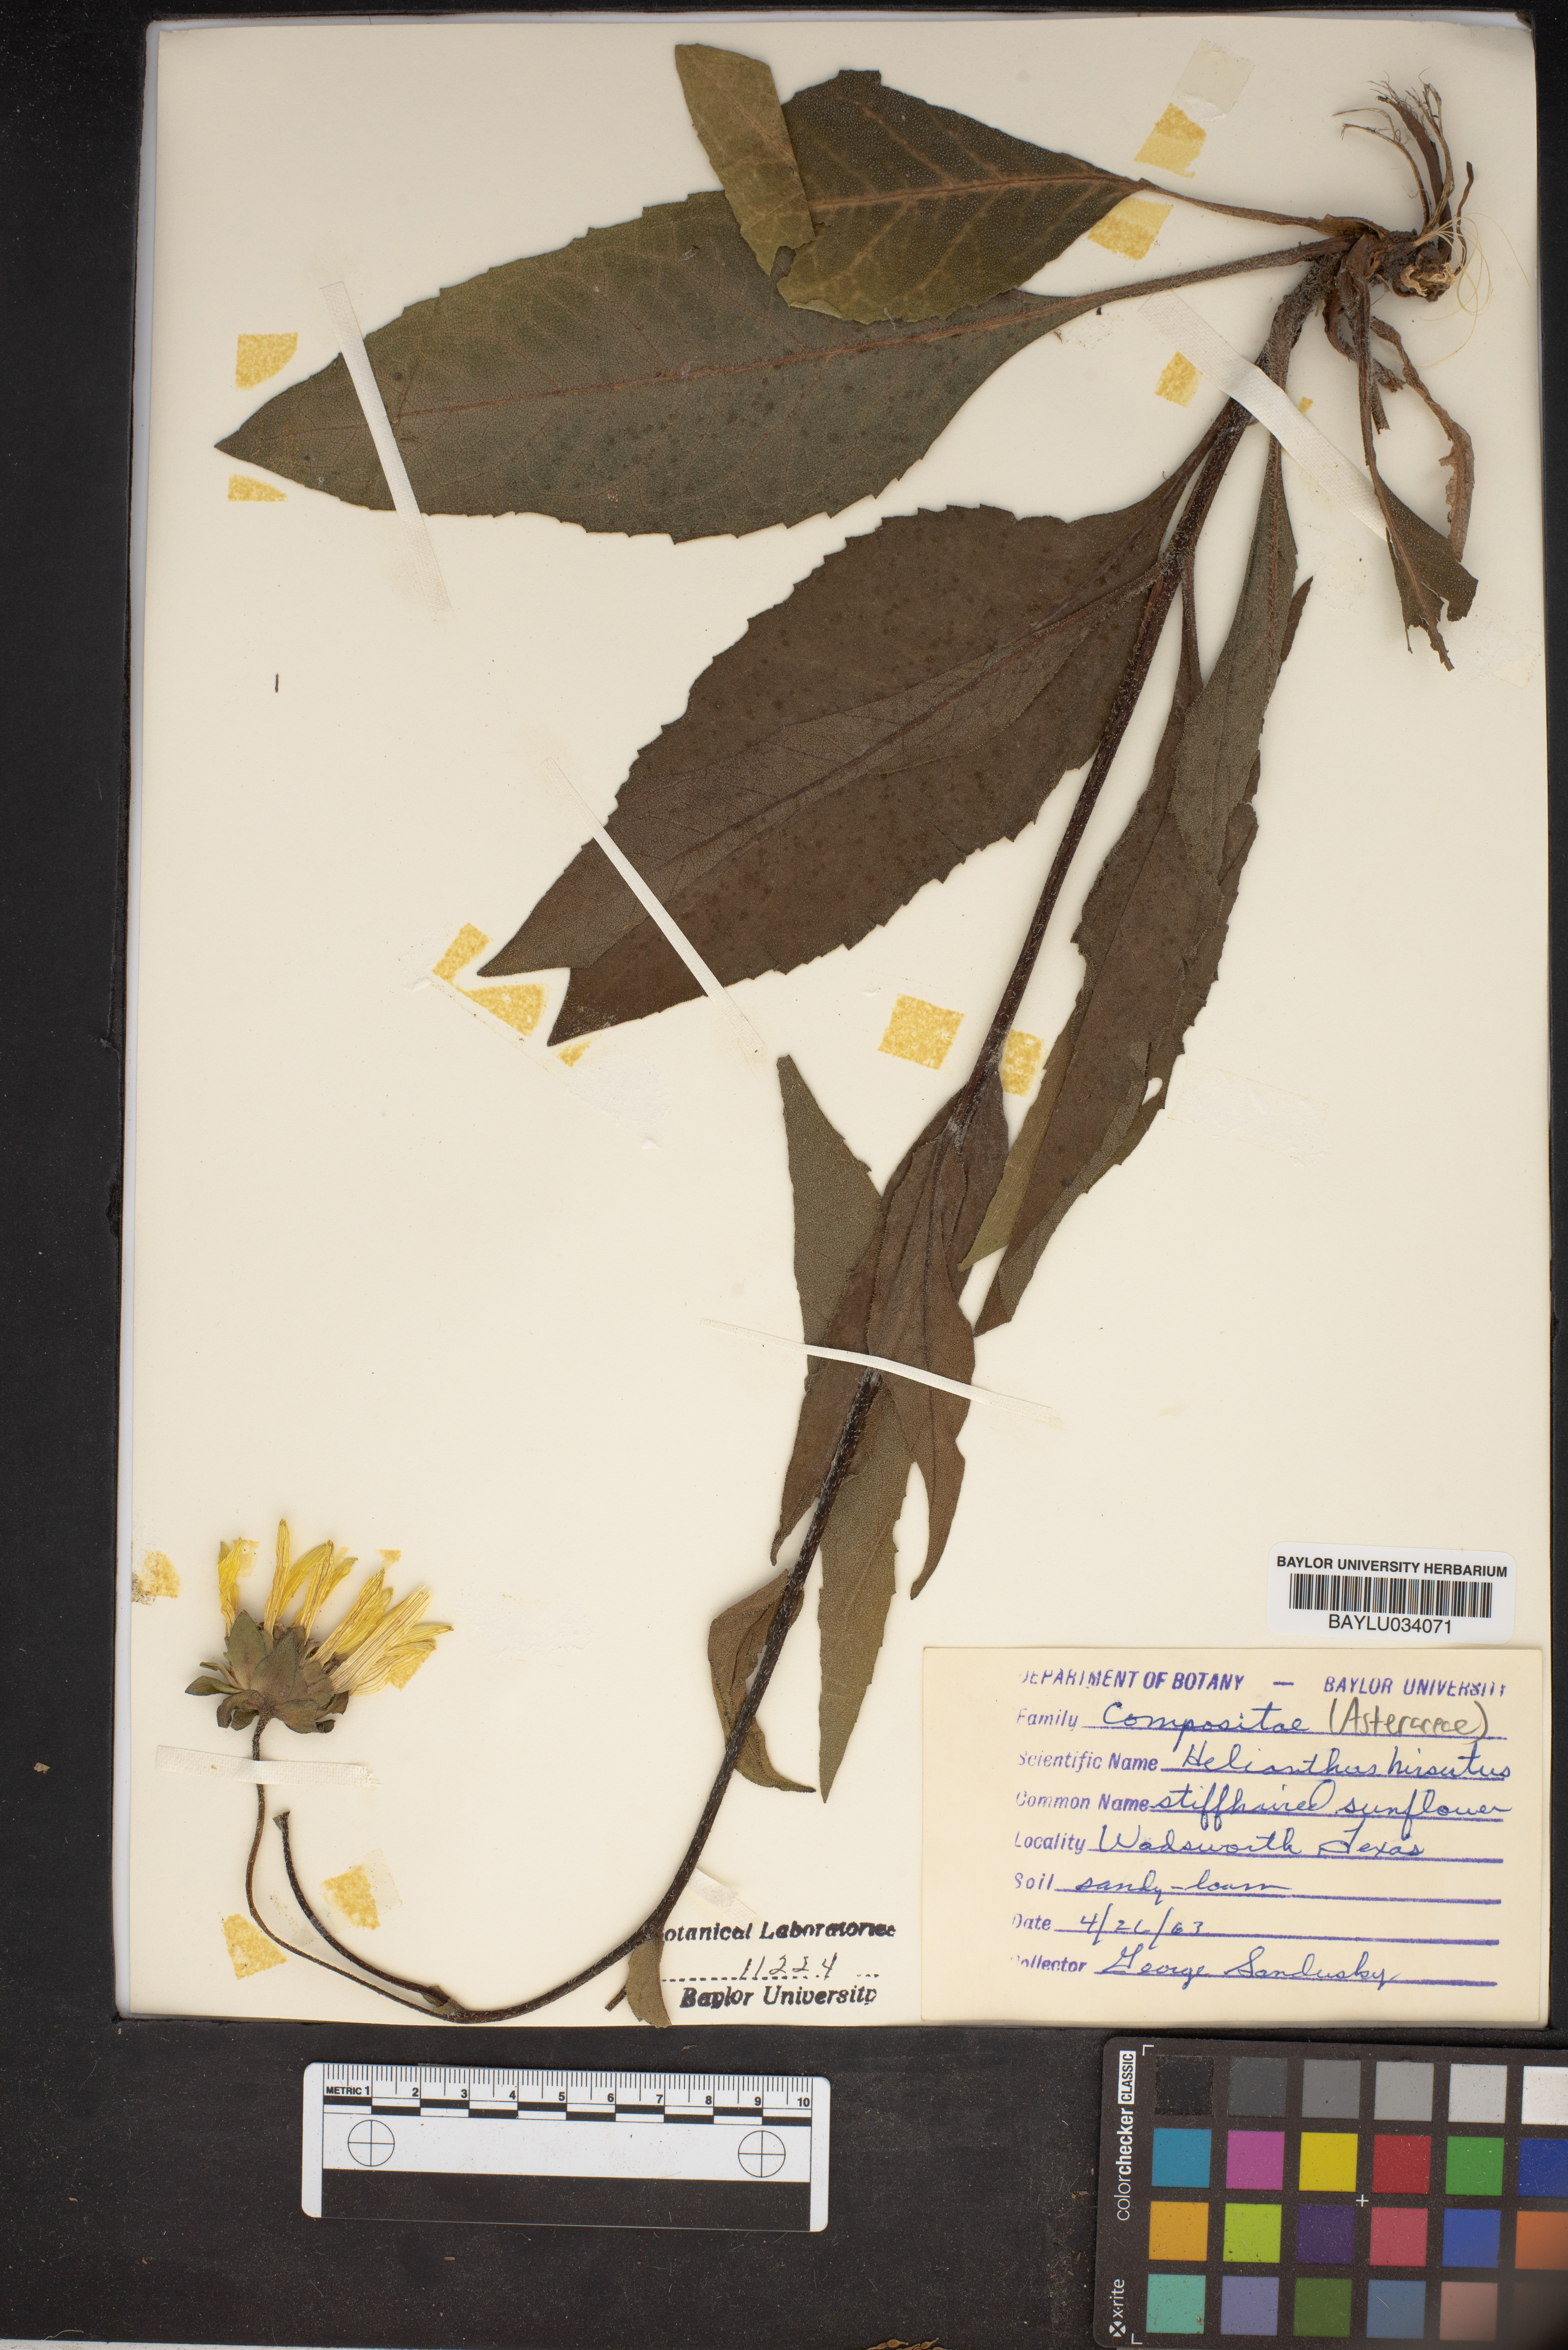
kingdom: Plantae
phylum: Tracheophyta
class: Magnoliopsida
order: Asterales
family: Asteraceae
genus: Helianthus
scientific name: Helianthus hirsutus
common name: Hairy sunflower
